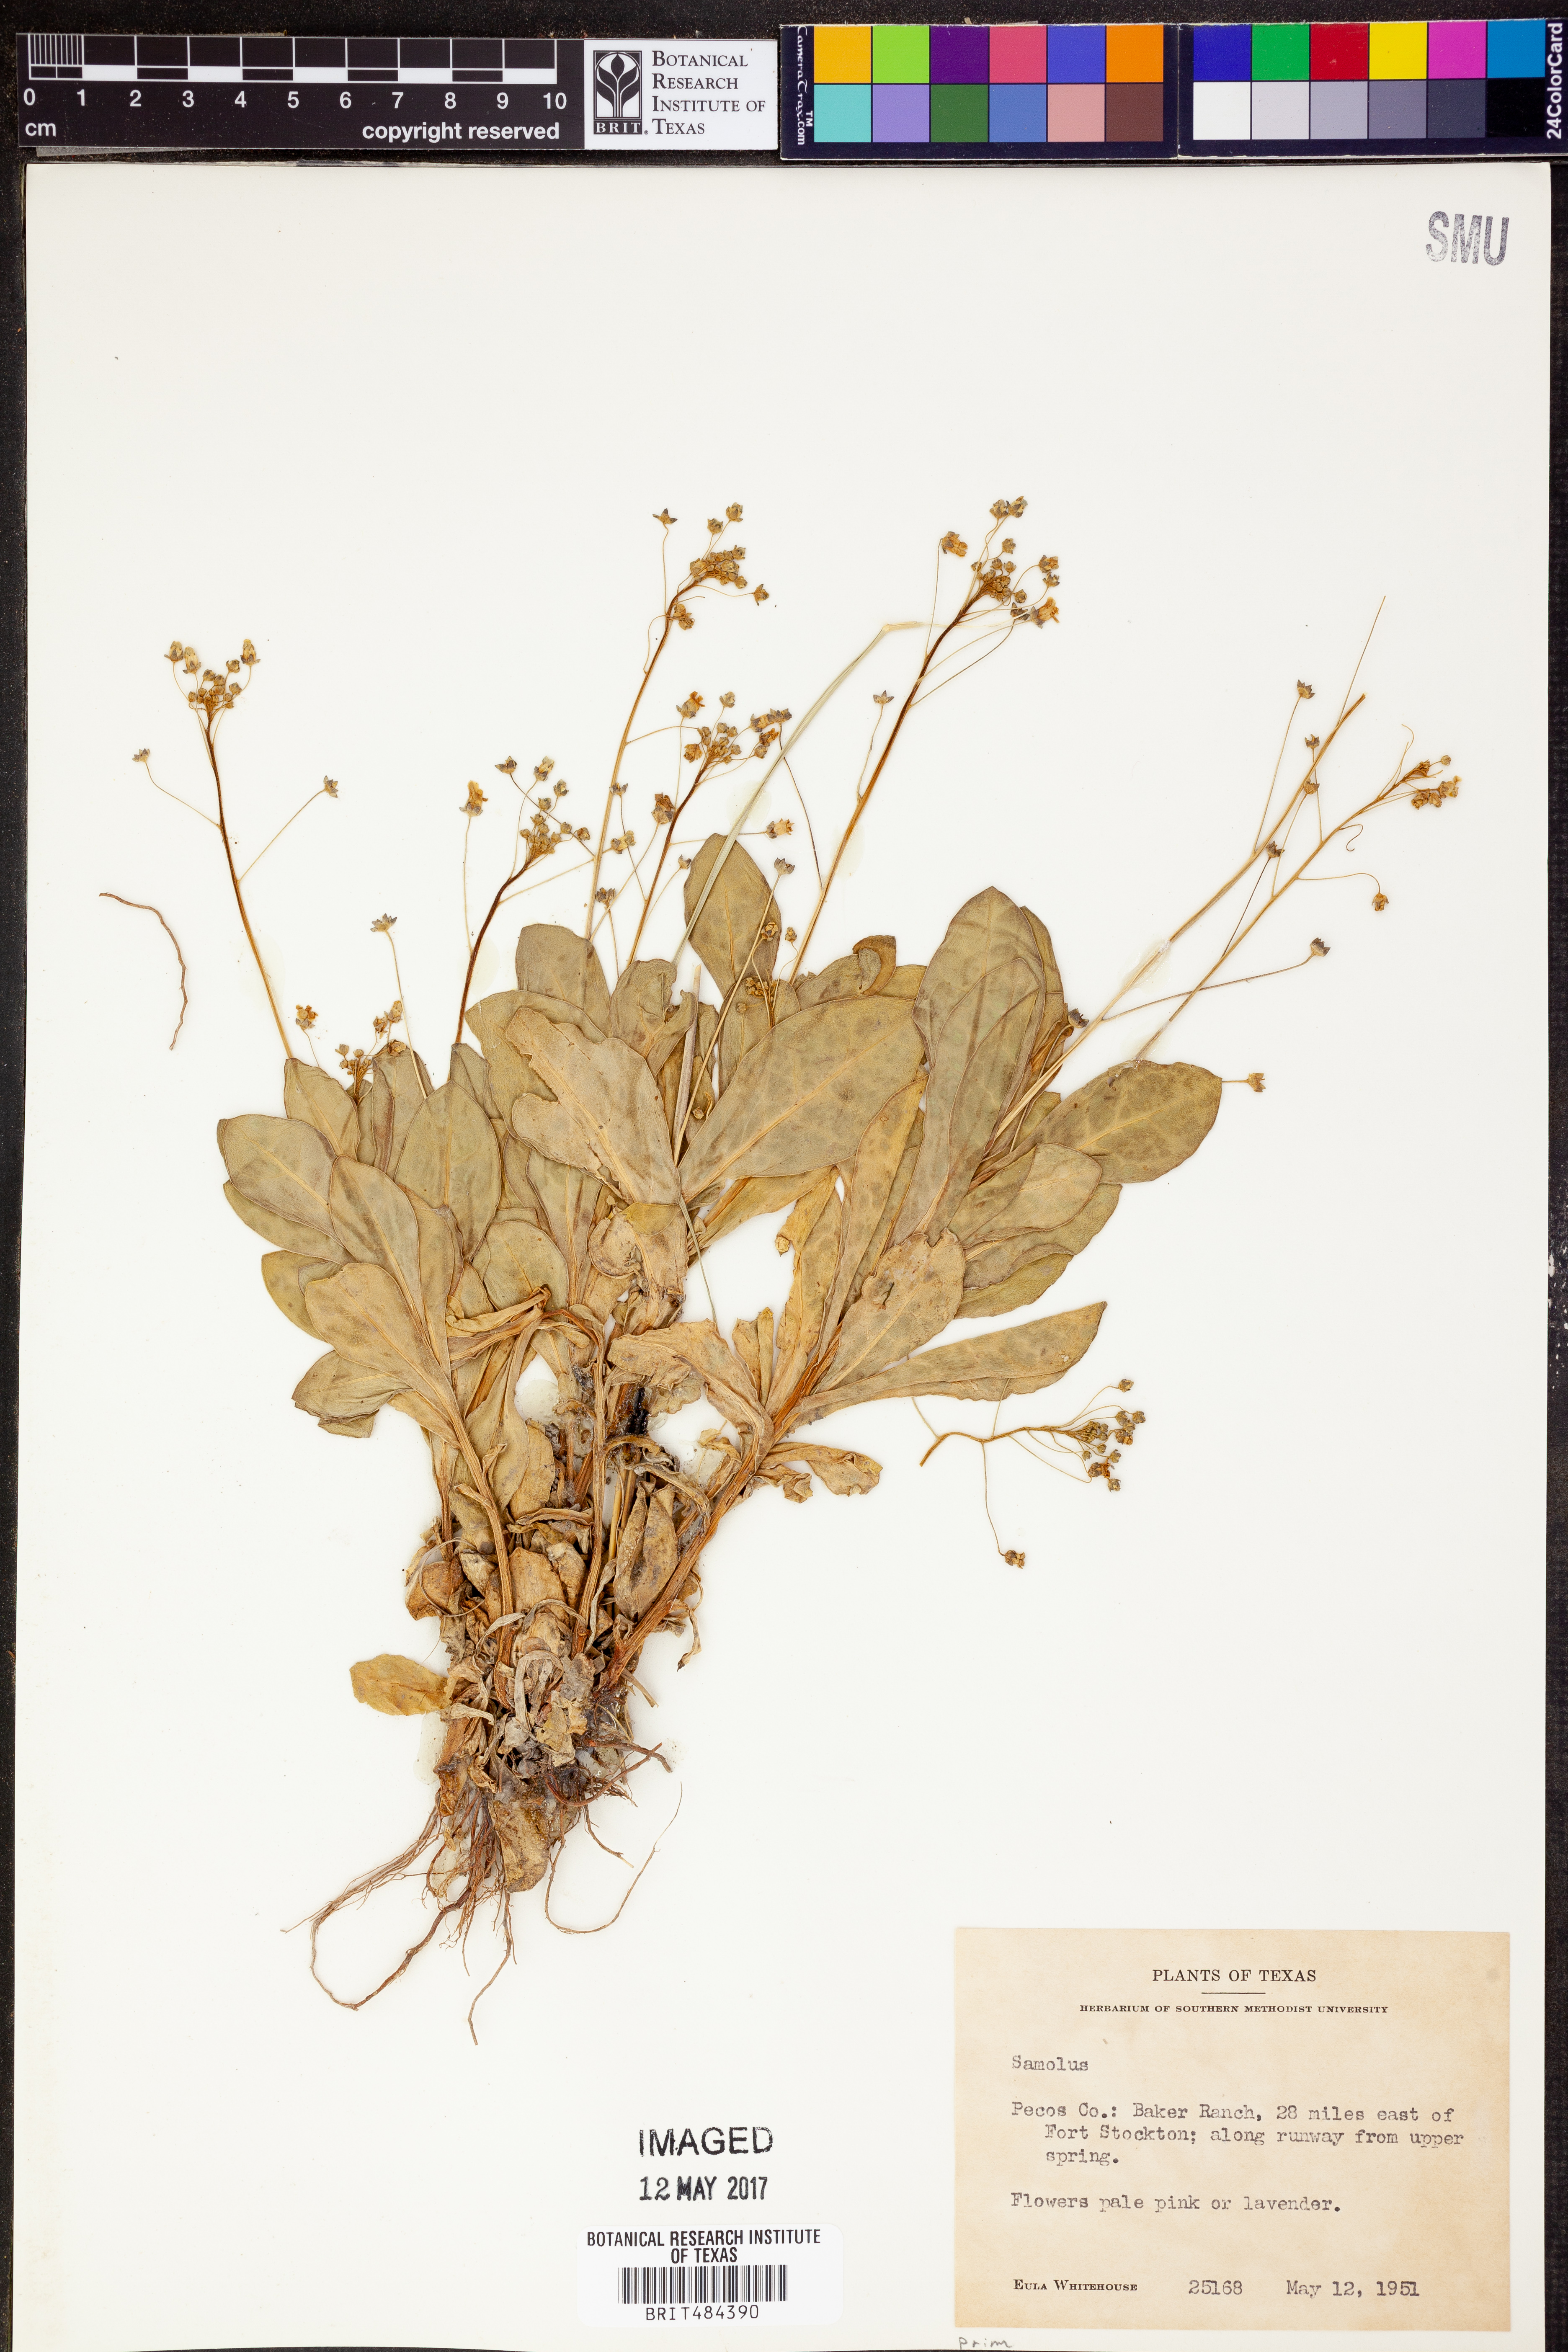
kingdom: Plantae
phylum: Tracheophyta
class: Magnoliopsida
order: Ericales
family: Primulaceae
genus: Samolus
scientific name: Samolus
